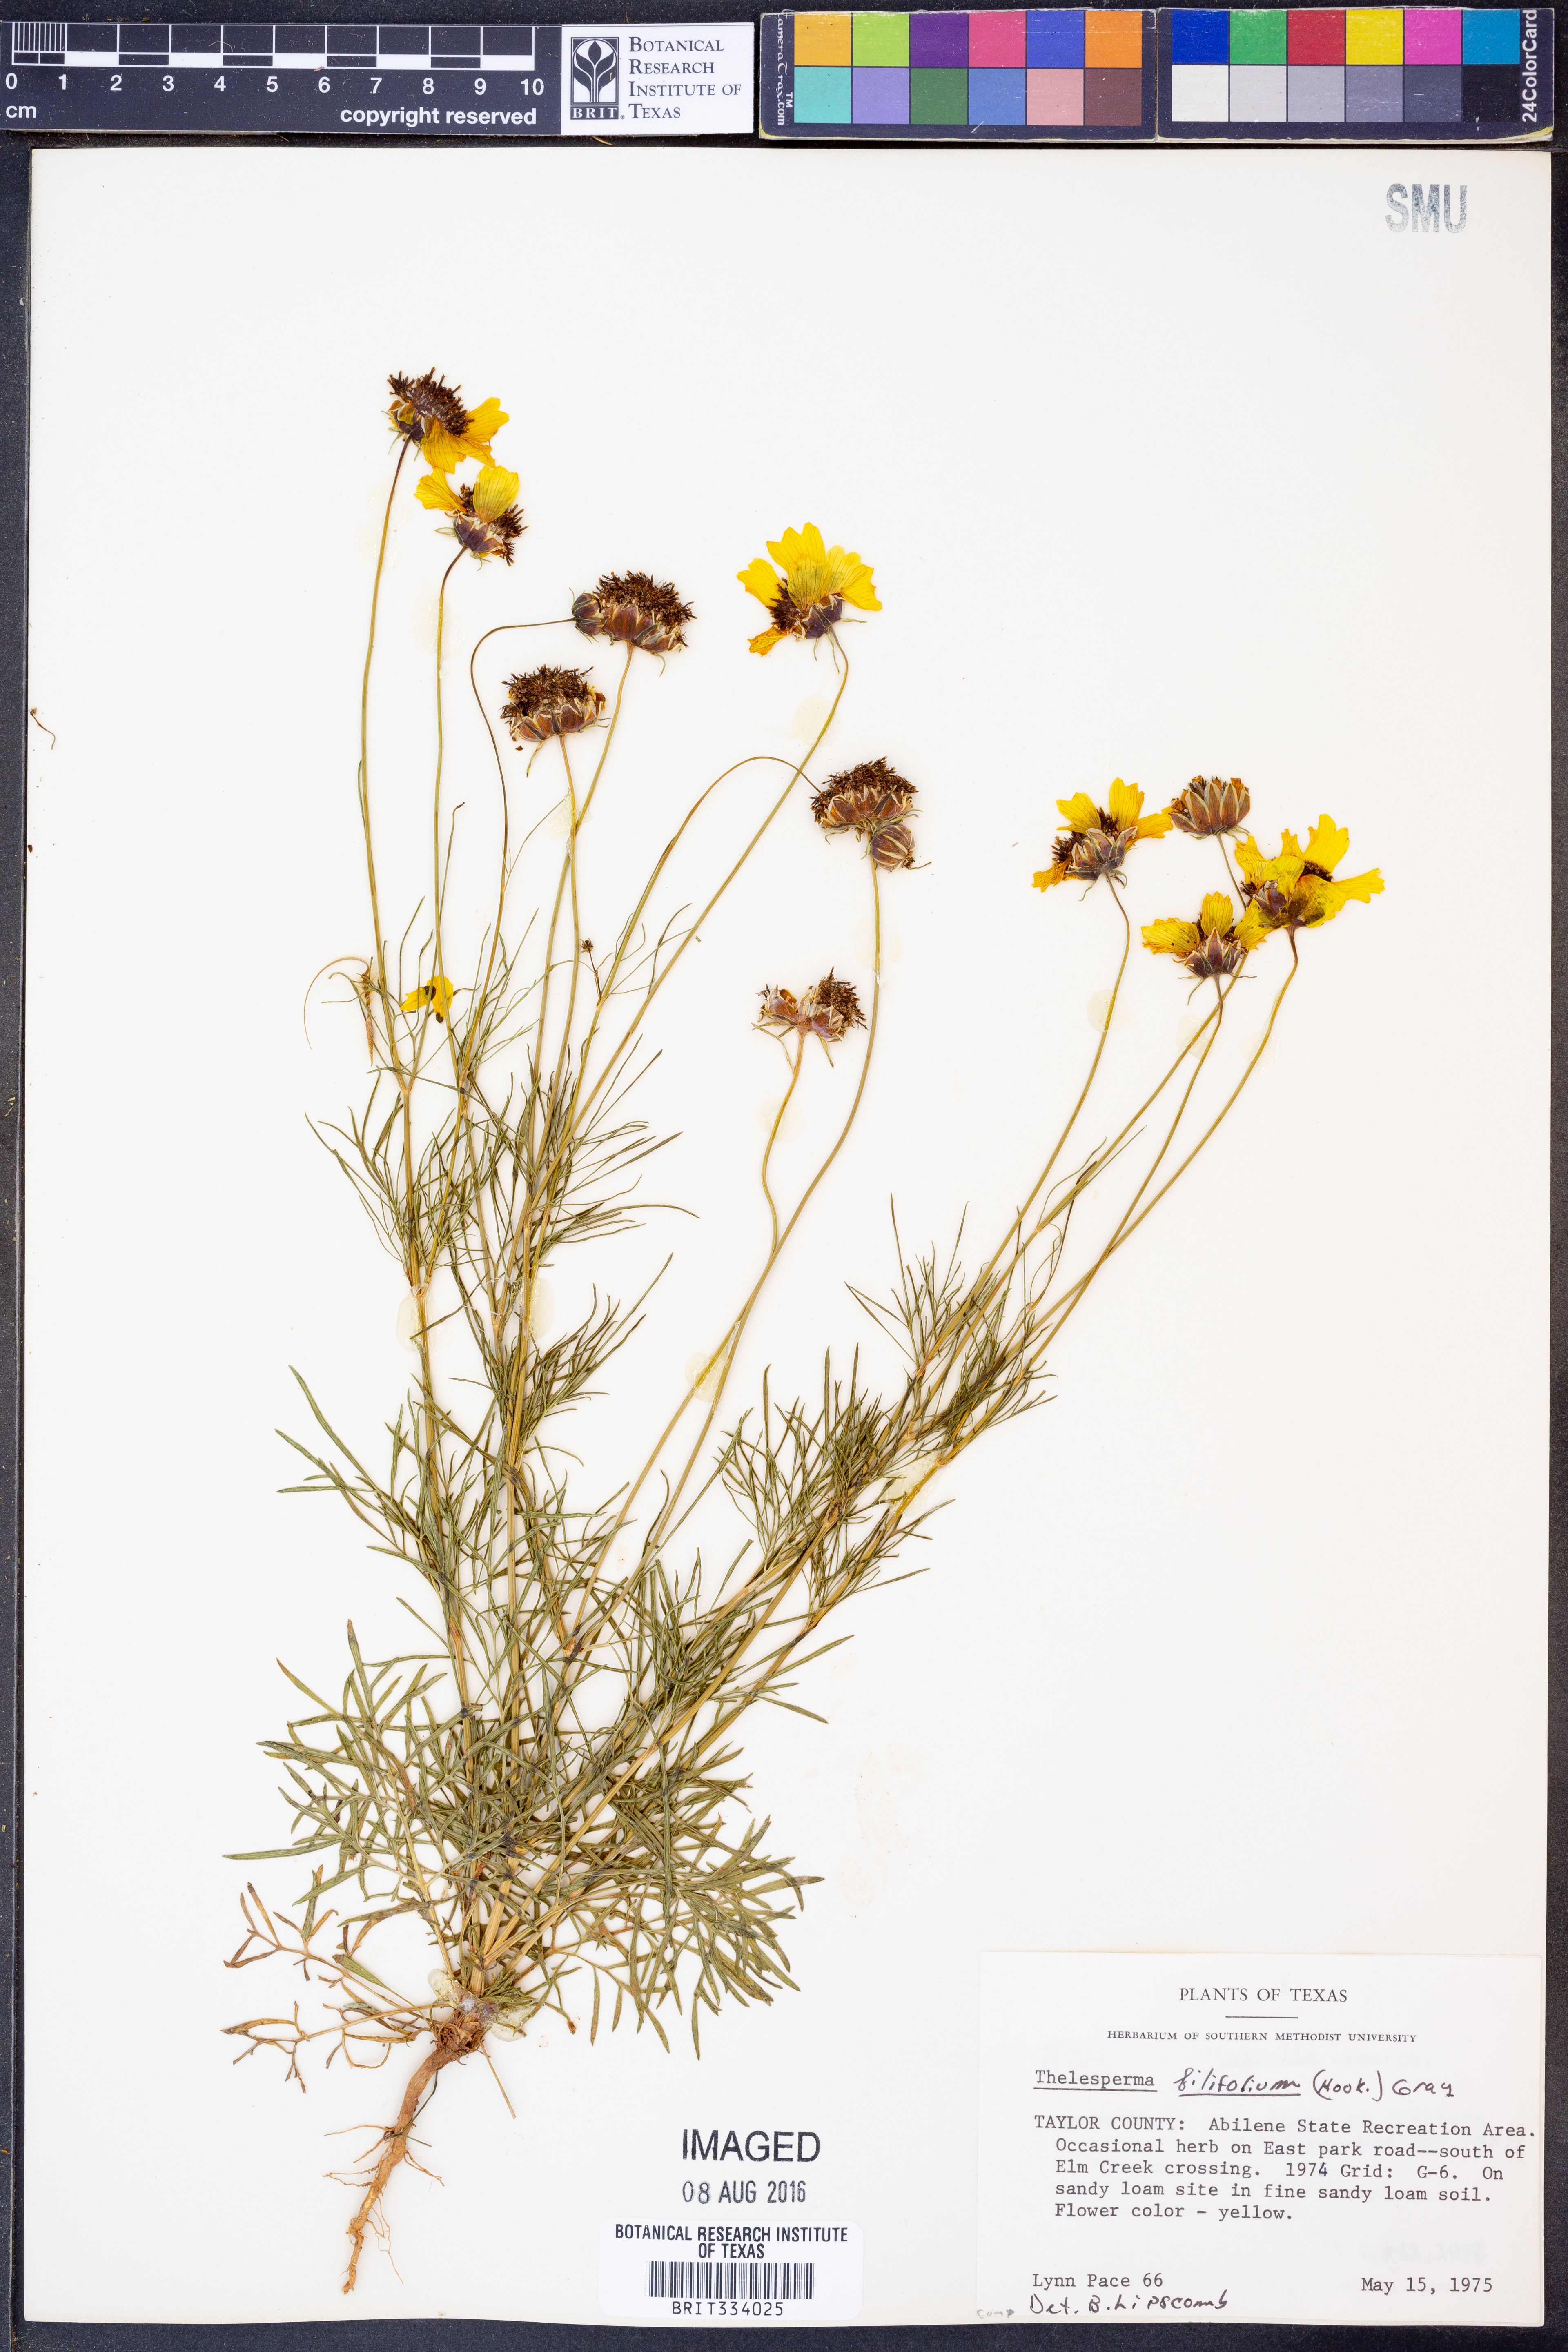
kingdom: Plantae
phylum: Tracheophyta
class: Magnoliopsida
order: Asterales
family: Asteraceae
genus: Thelesperma
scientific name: Thelesperma filifolium
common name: Stiff greenthread
